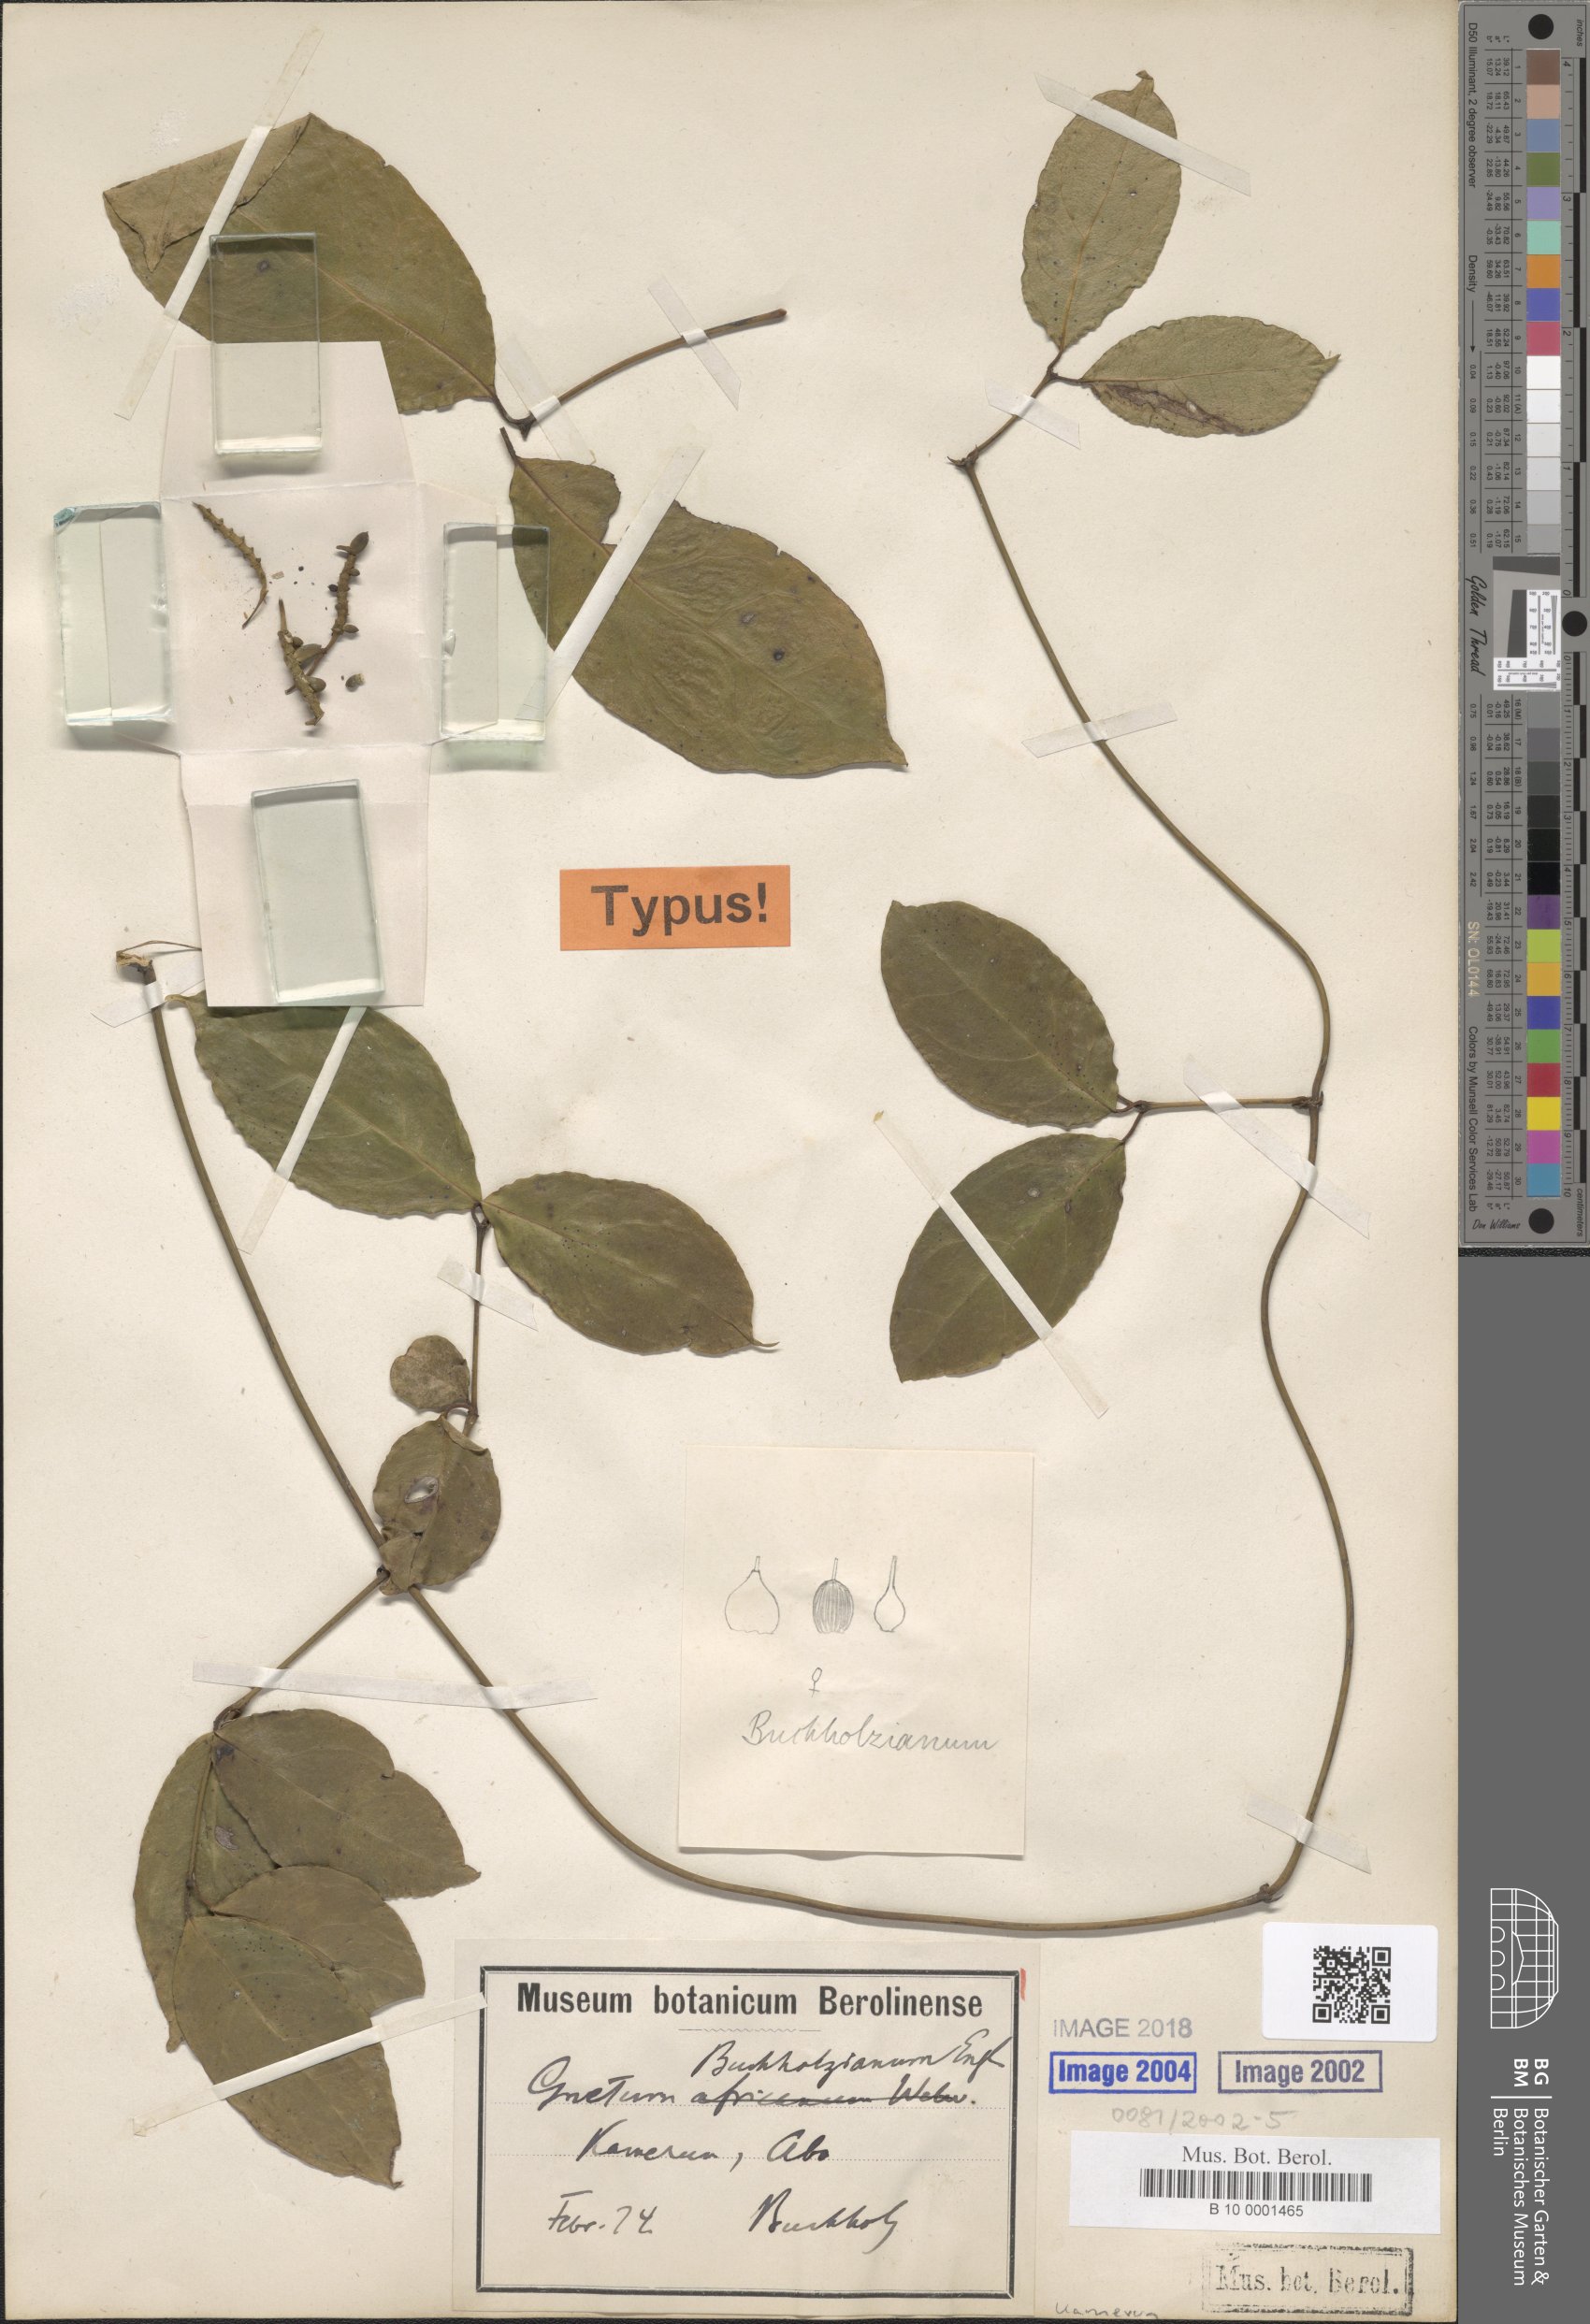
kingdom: Plantae
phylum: Tracheophyta
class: Gnetopsida
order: Gnetales
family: Gnetaceae
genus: Gnetum
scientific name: Gnetum buchholzianum
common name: Eru
